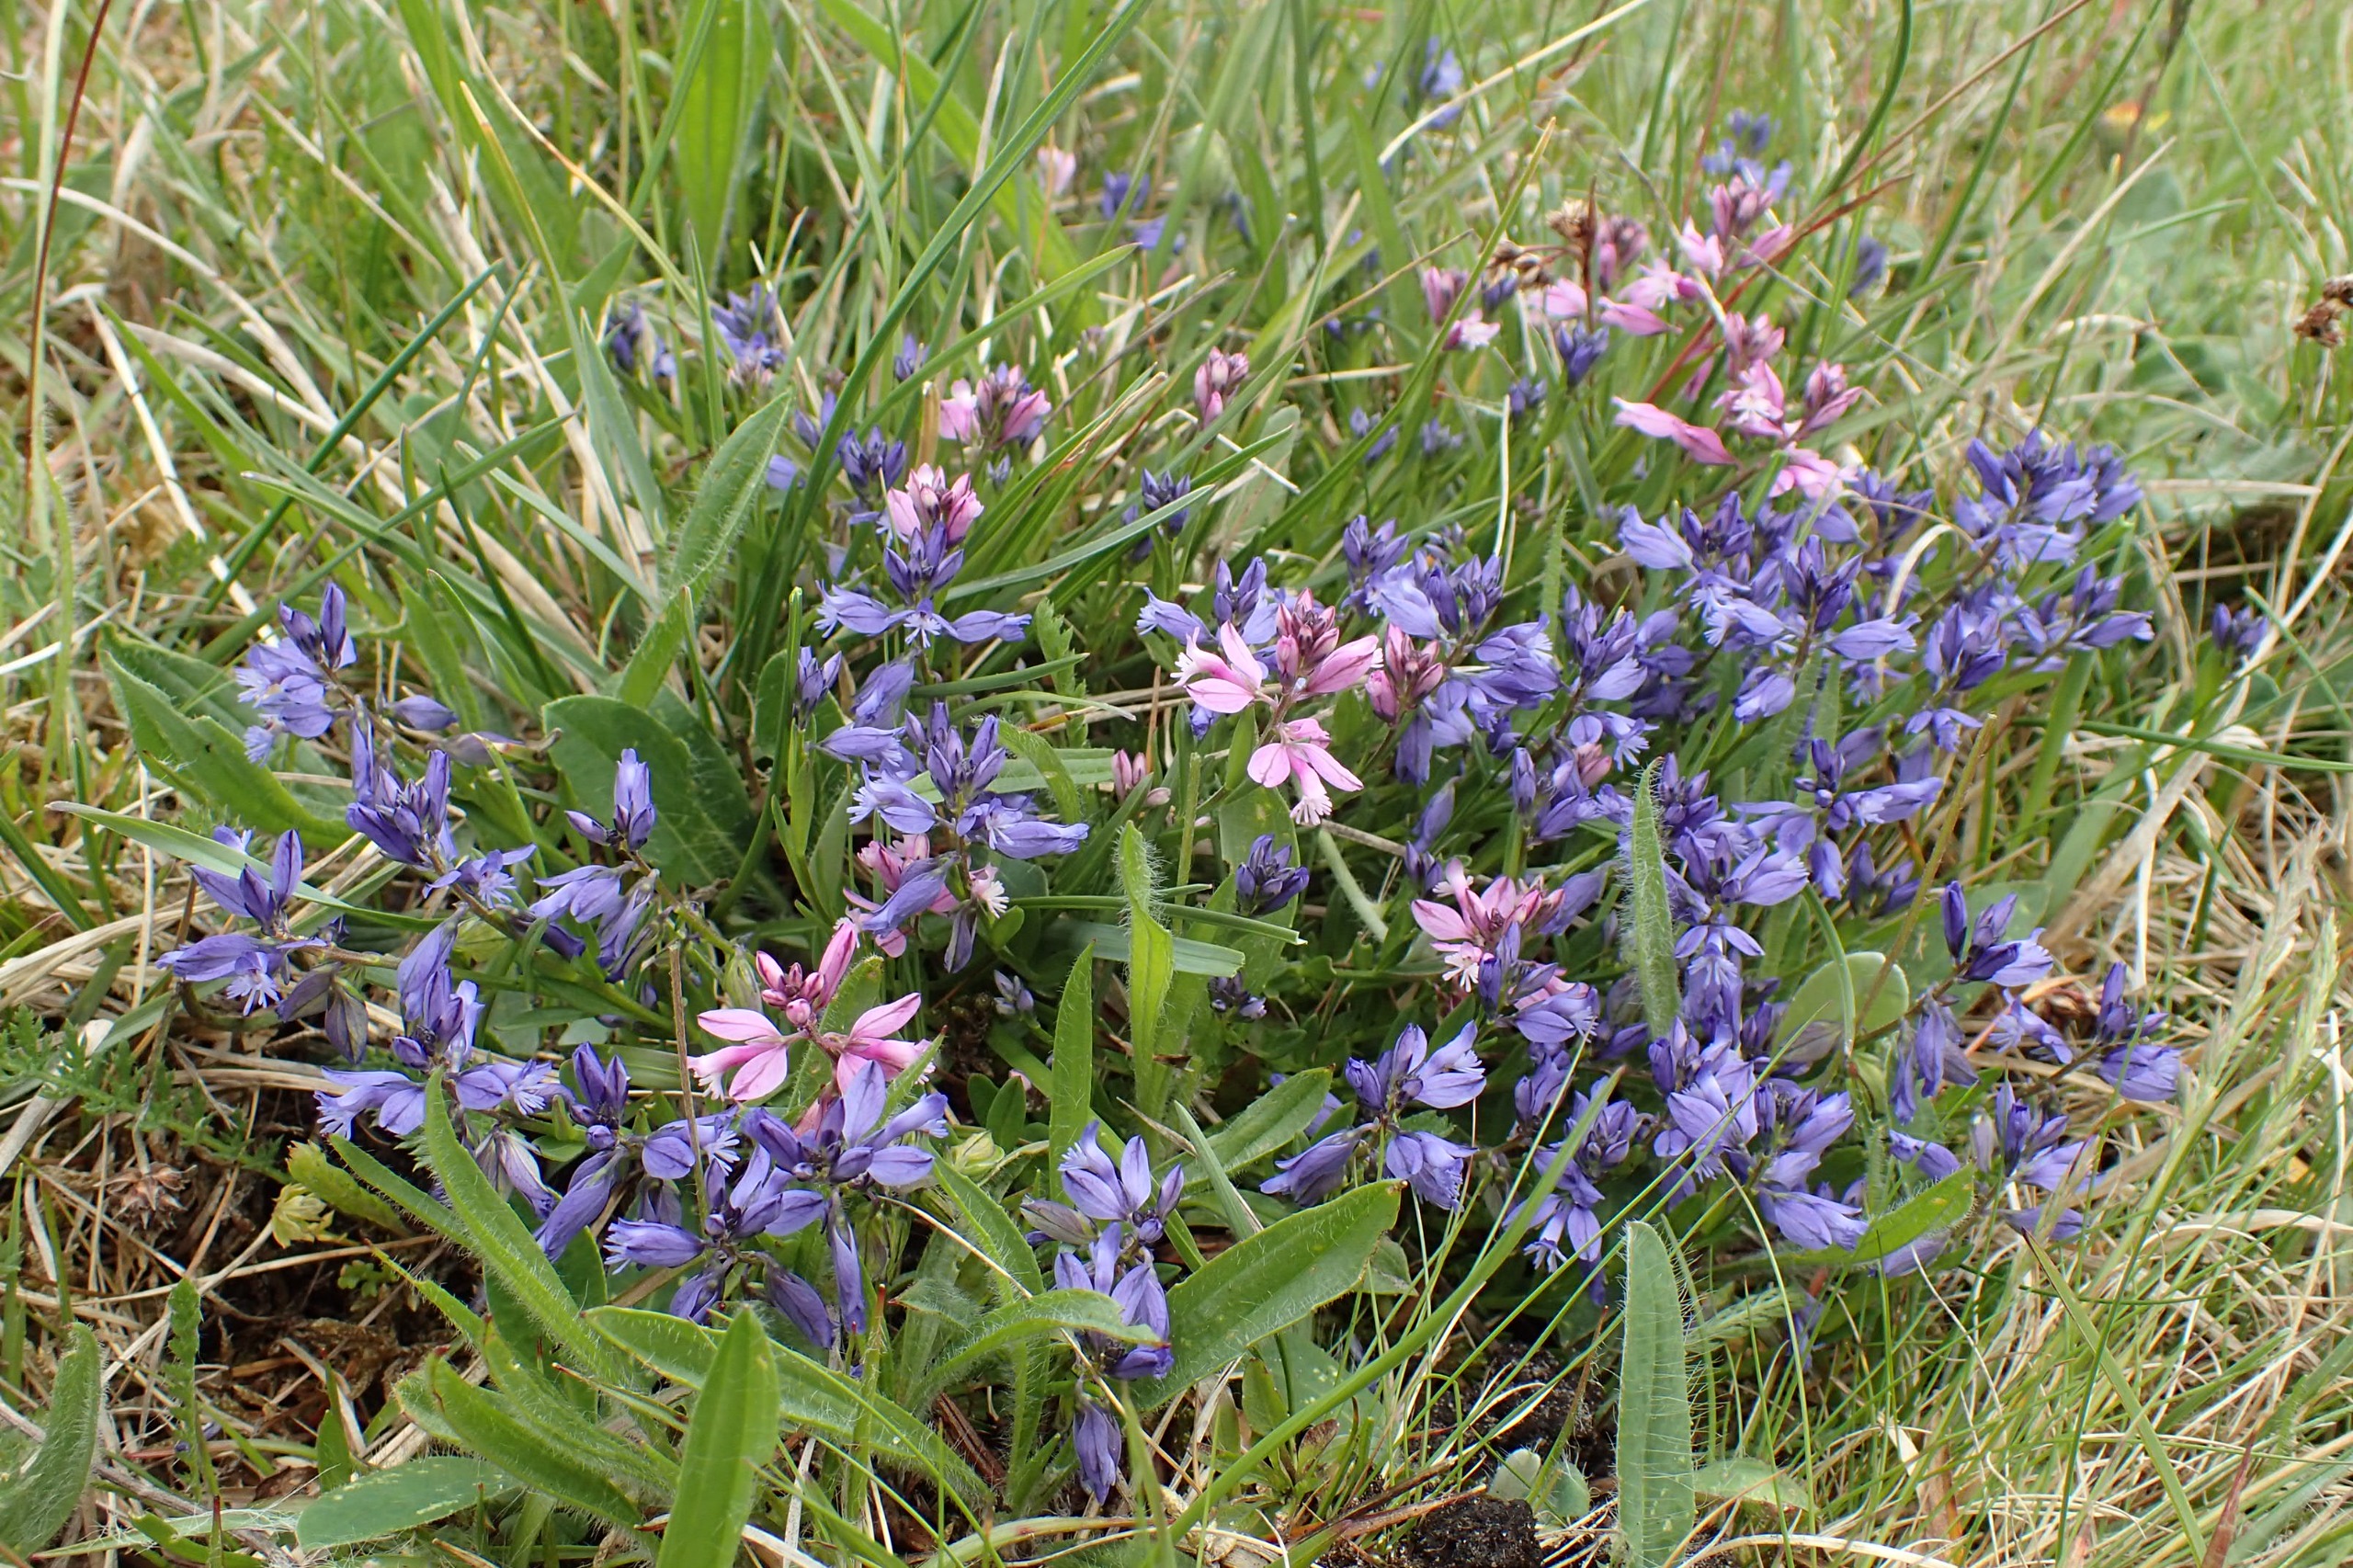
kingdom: Plantae
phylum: Tracheophyta
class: Magnoliopsida
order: Fabales
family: Polygalaceae
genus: Polygala
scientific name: Polygala vulgaris
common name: Almindelig mælkeurt
